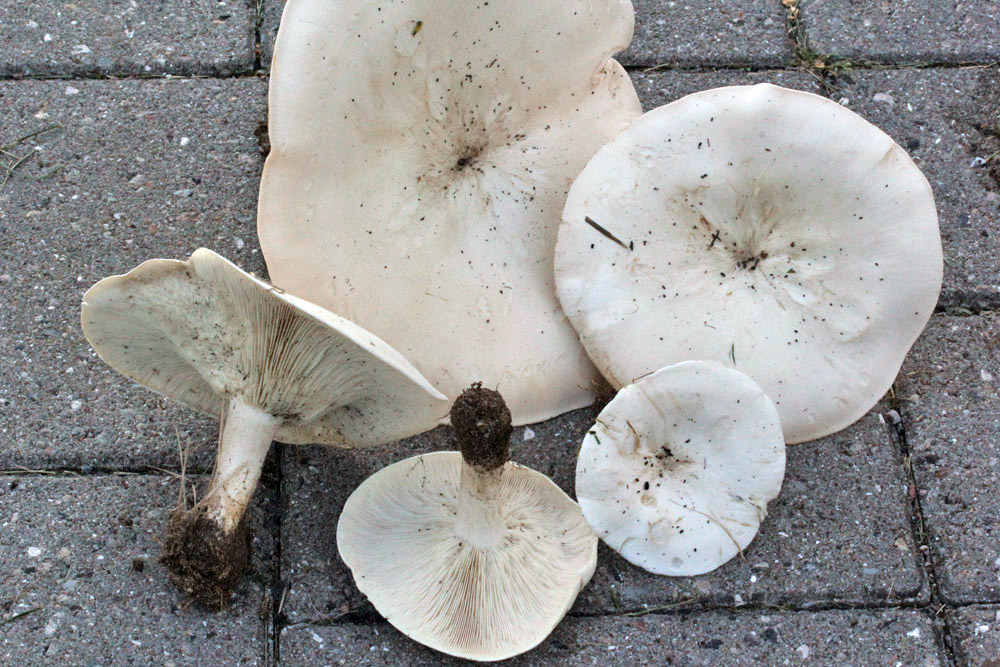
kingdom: Fungi
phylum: Basidiomycota
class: Agaricomycetes
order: Agaricales
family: Tricholomataceae
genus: Aspropaxillus
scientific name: Aspropaxillus giganteus
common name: kæmpe-tragtridderhat
